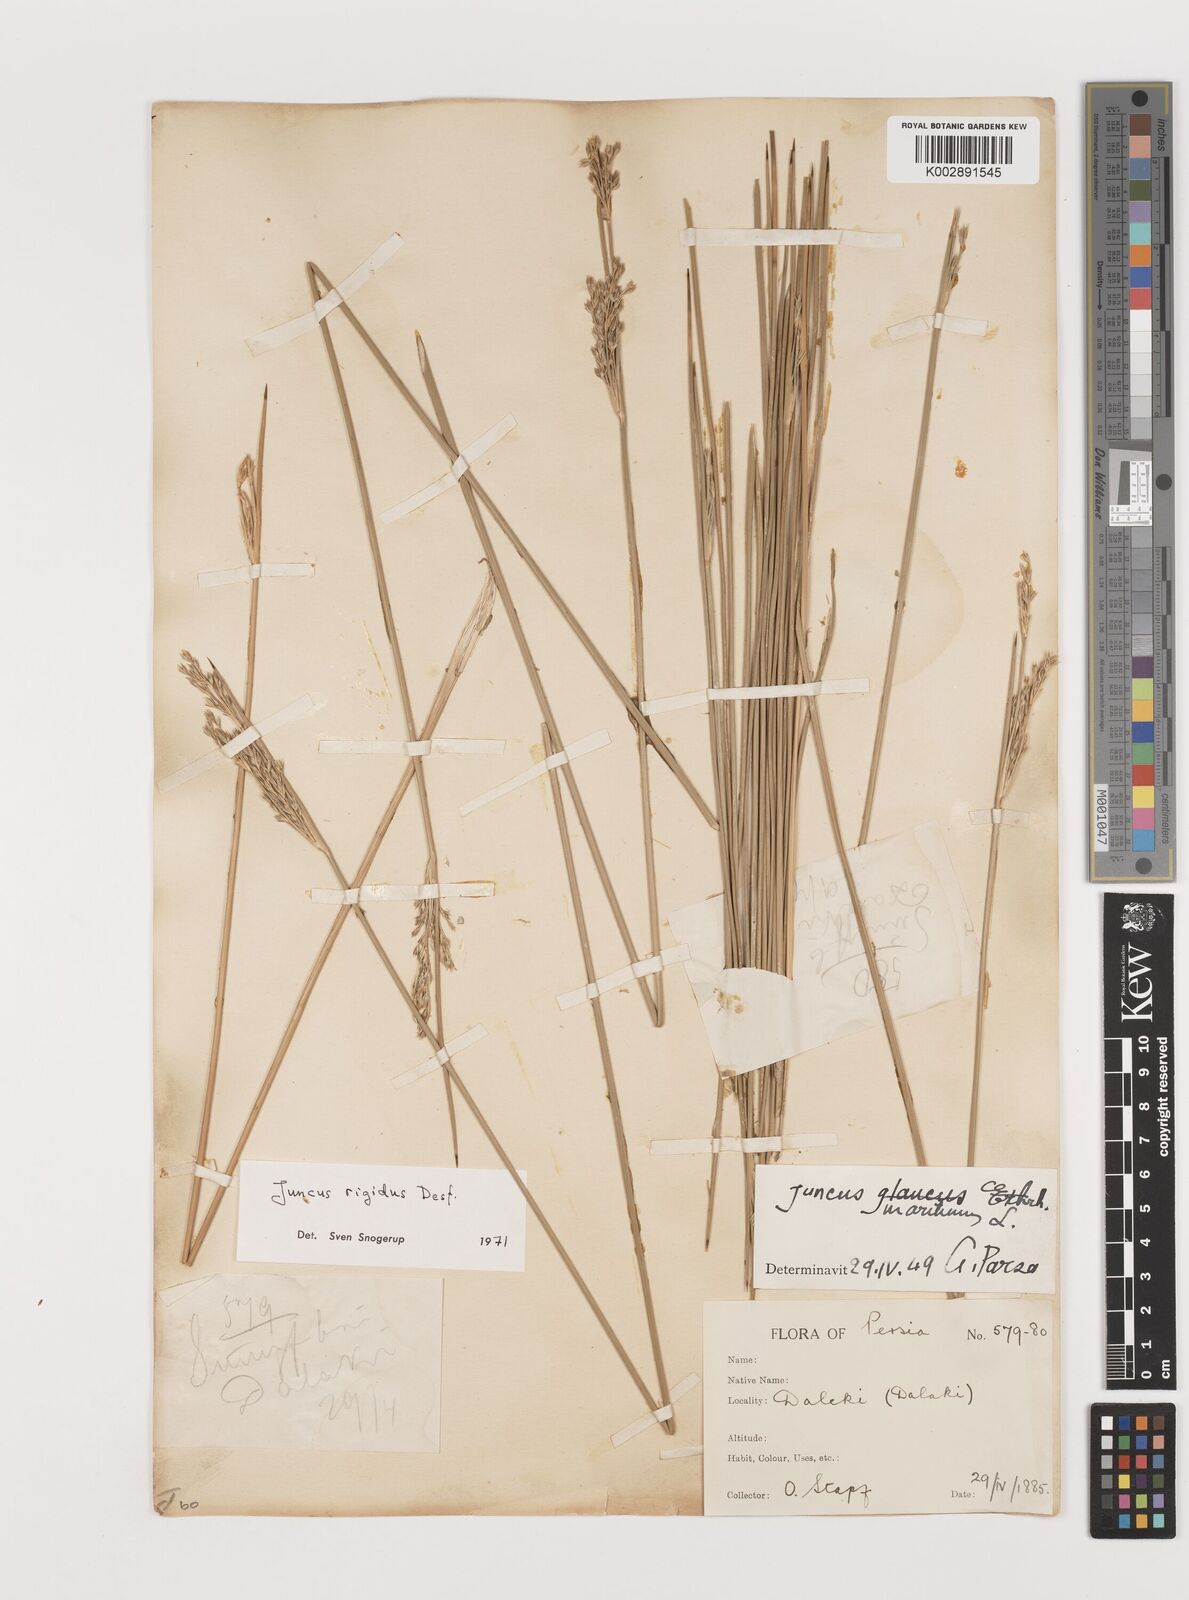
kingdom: Plantae
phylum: Tracheophyta
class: Liliopsida
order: Poales
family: Juncaceae
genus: Juncus
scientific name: Juncus rigidus
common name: Hard sea rush
